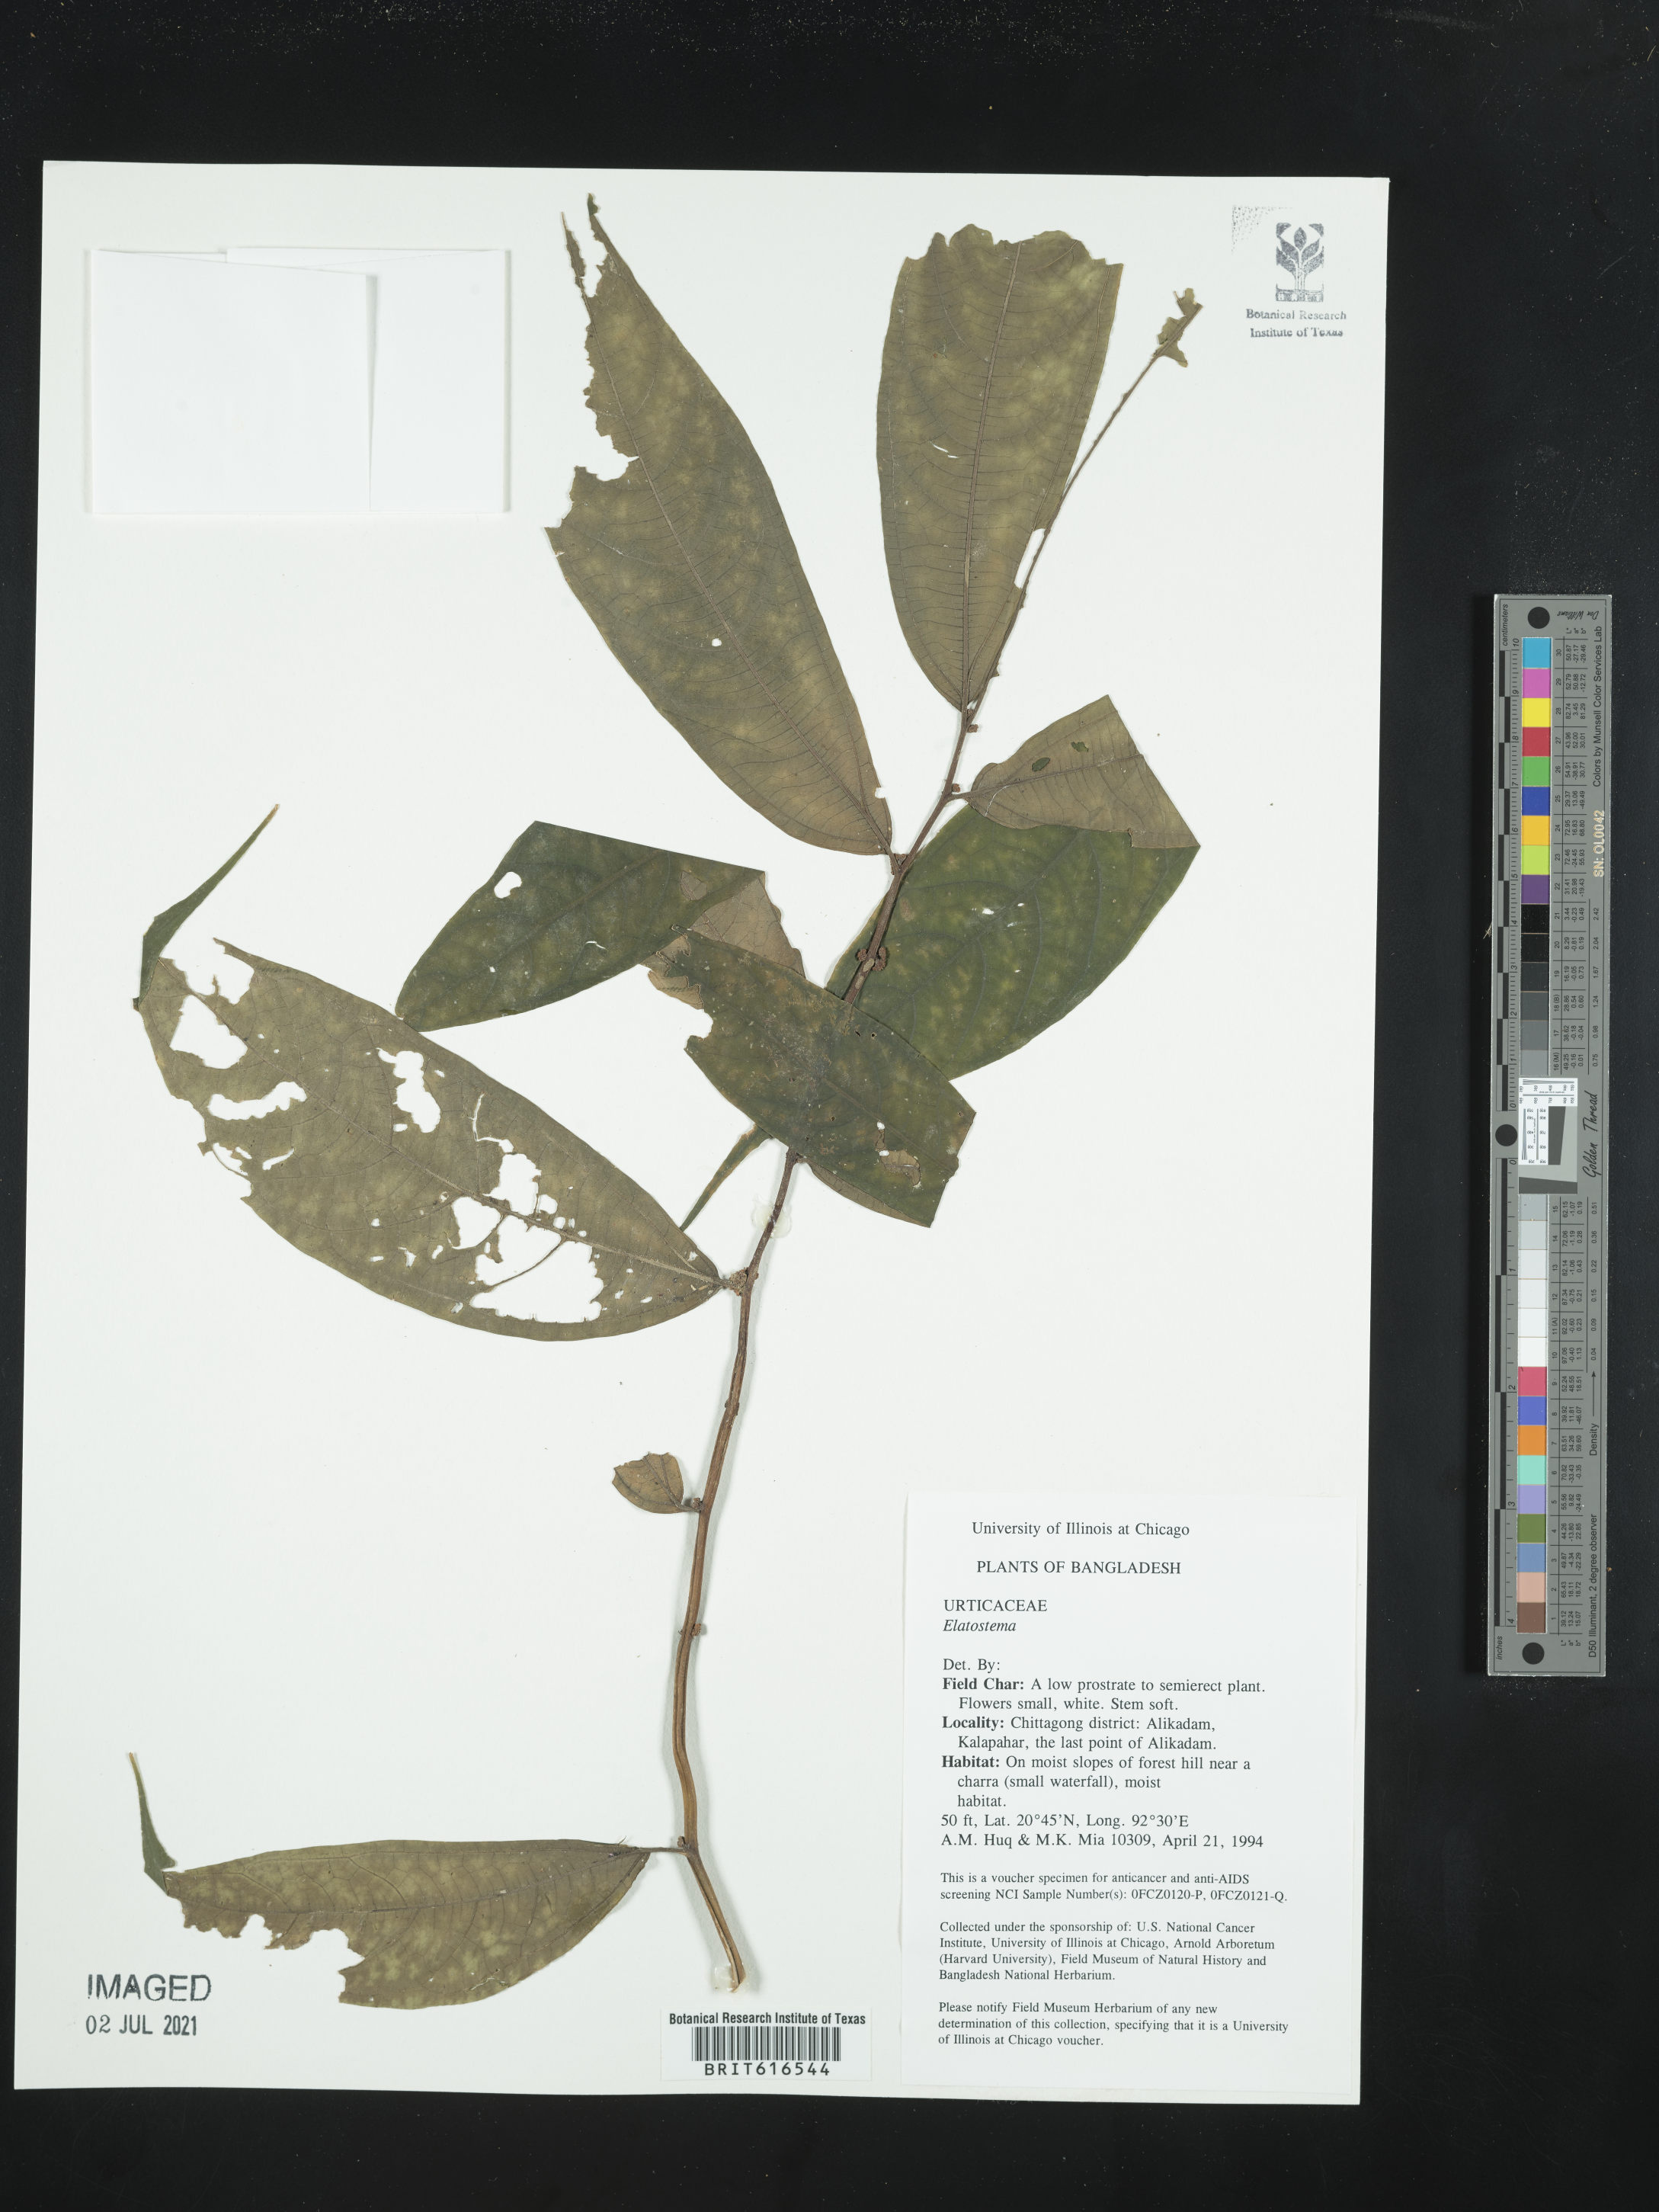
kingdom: Plantae
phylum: Tracheophyta
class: Magnoliopsida
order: Rosales
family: Urticaceae
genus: Elatostema
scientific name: Elatostema
